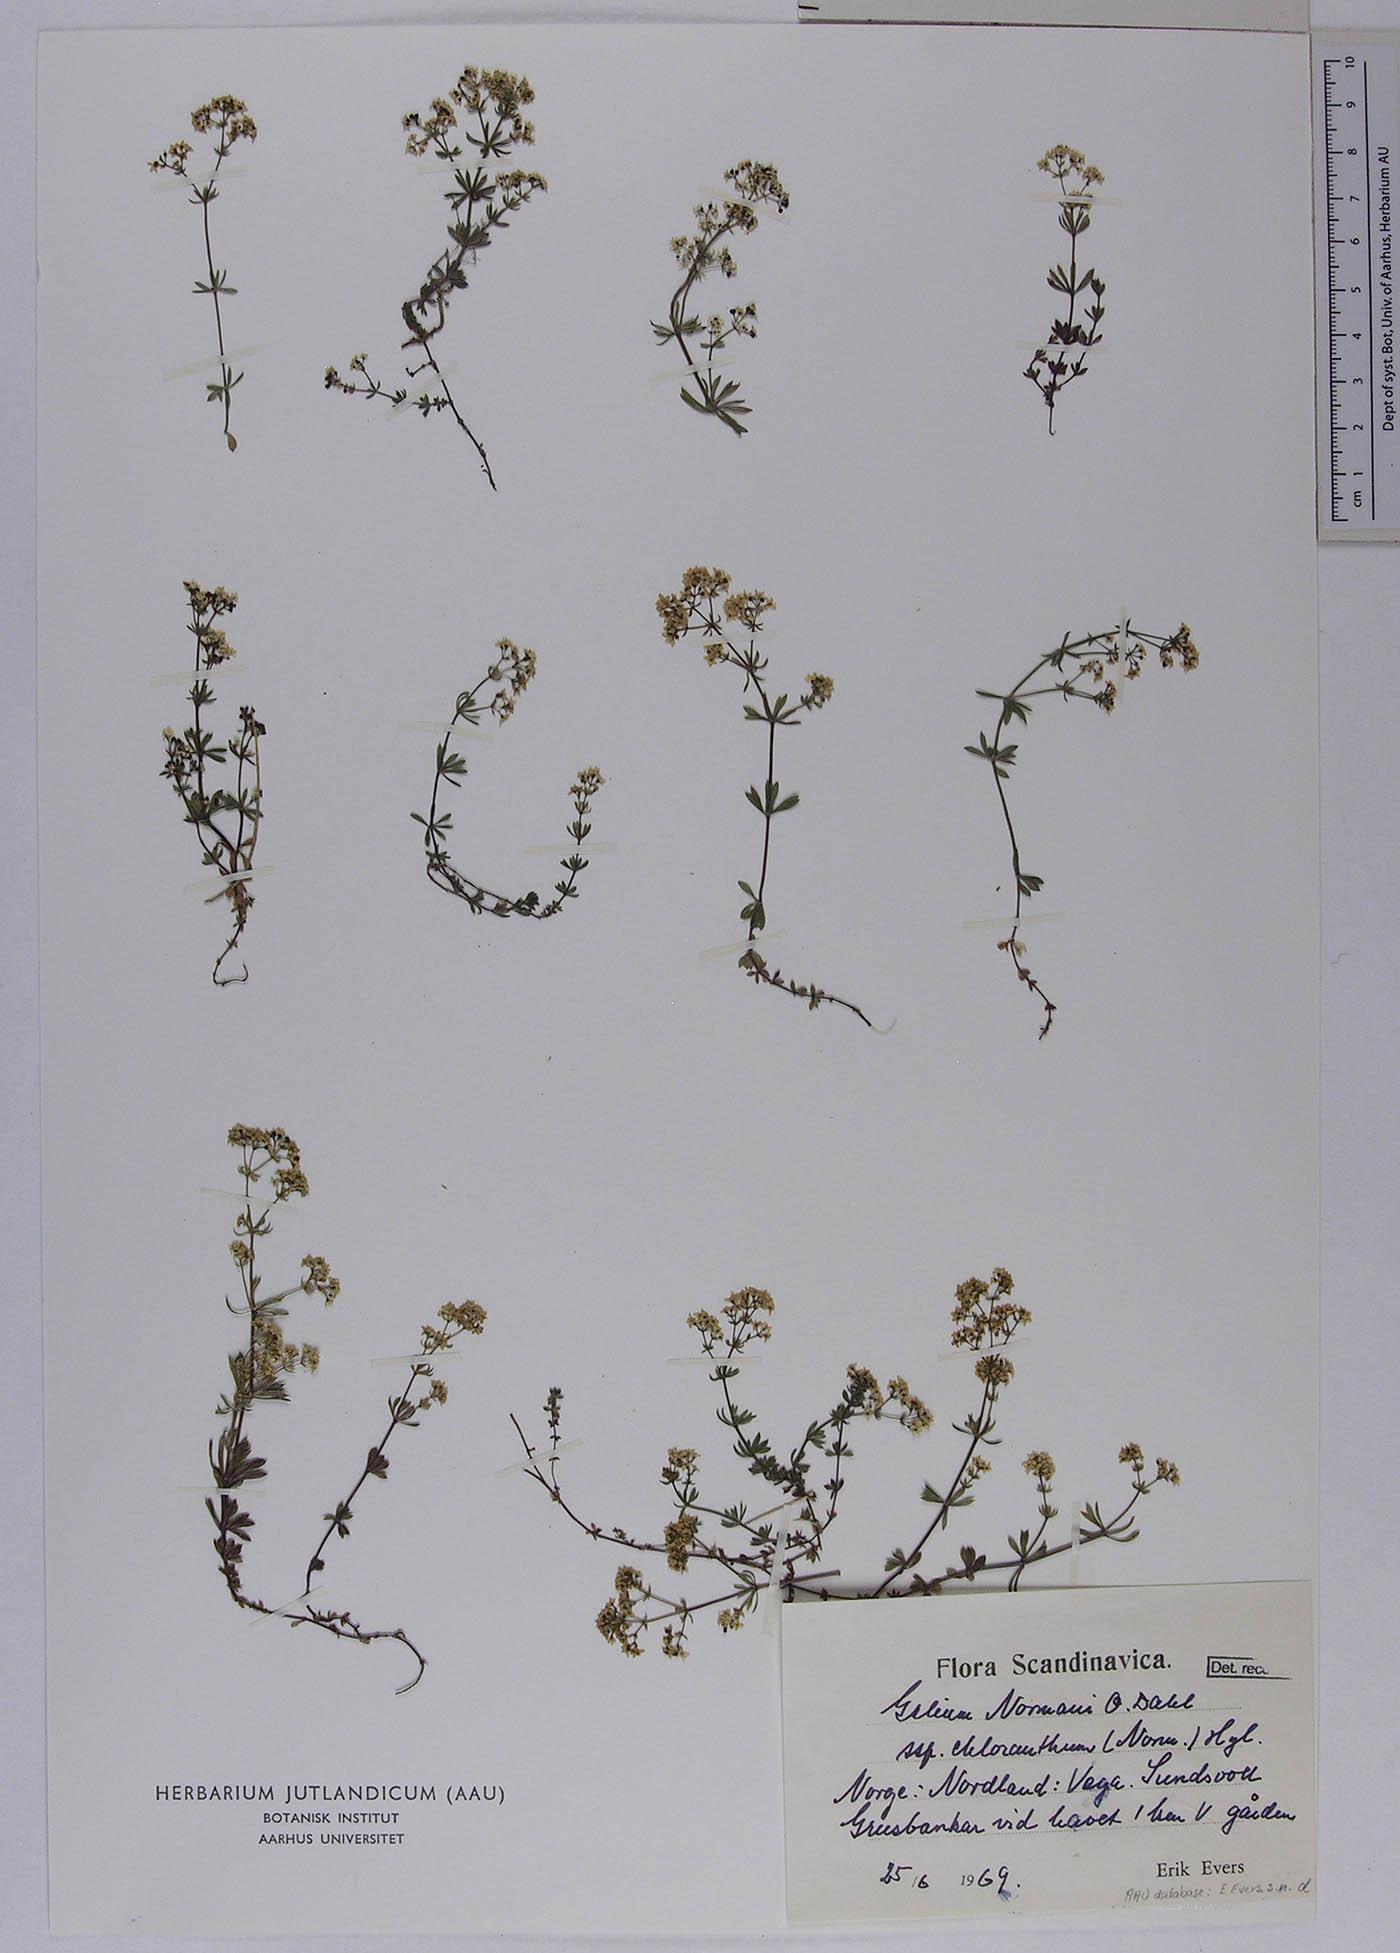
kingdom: Plantae
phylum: Tracheophyta
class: Magnoliopsida
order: Gentianales
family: Rubiaceae
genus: Galium
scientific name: Galium normanii
